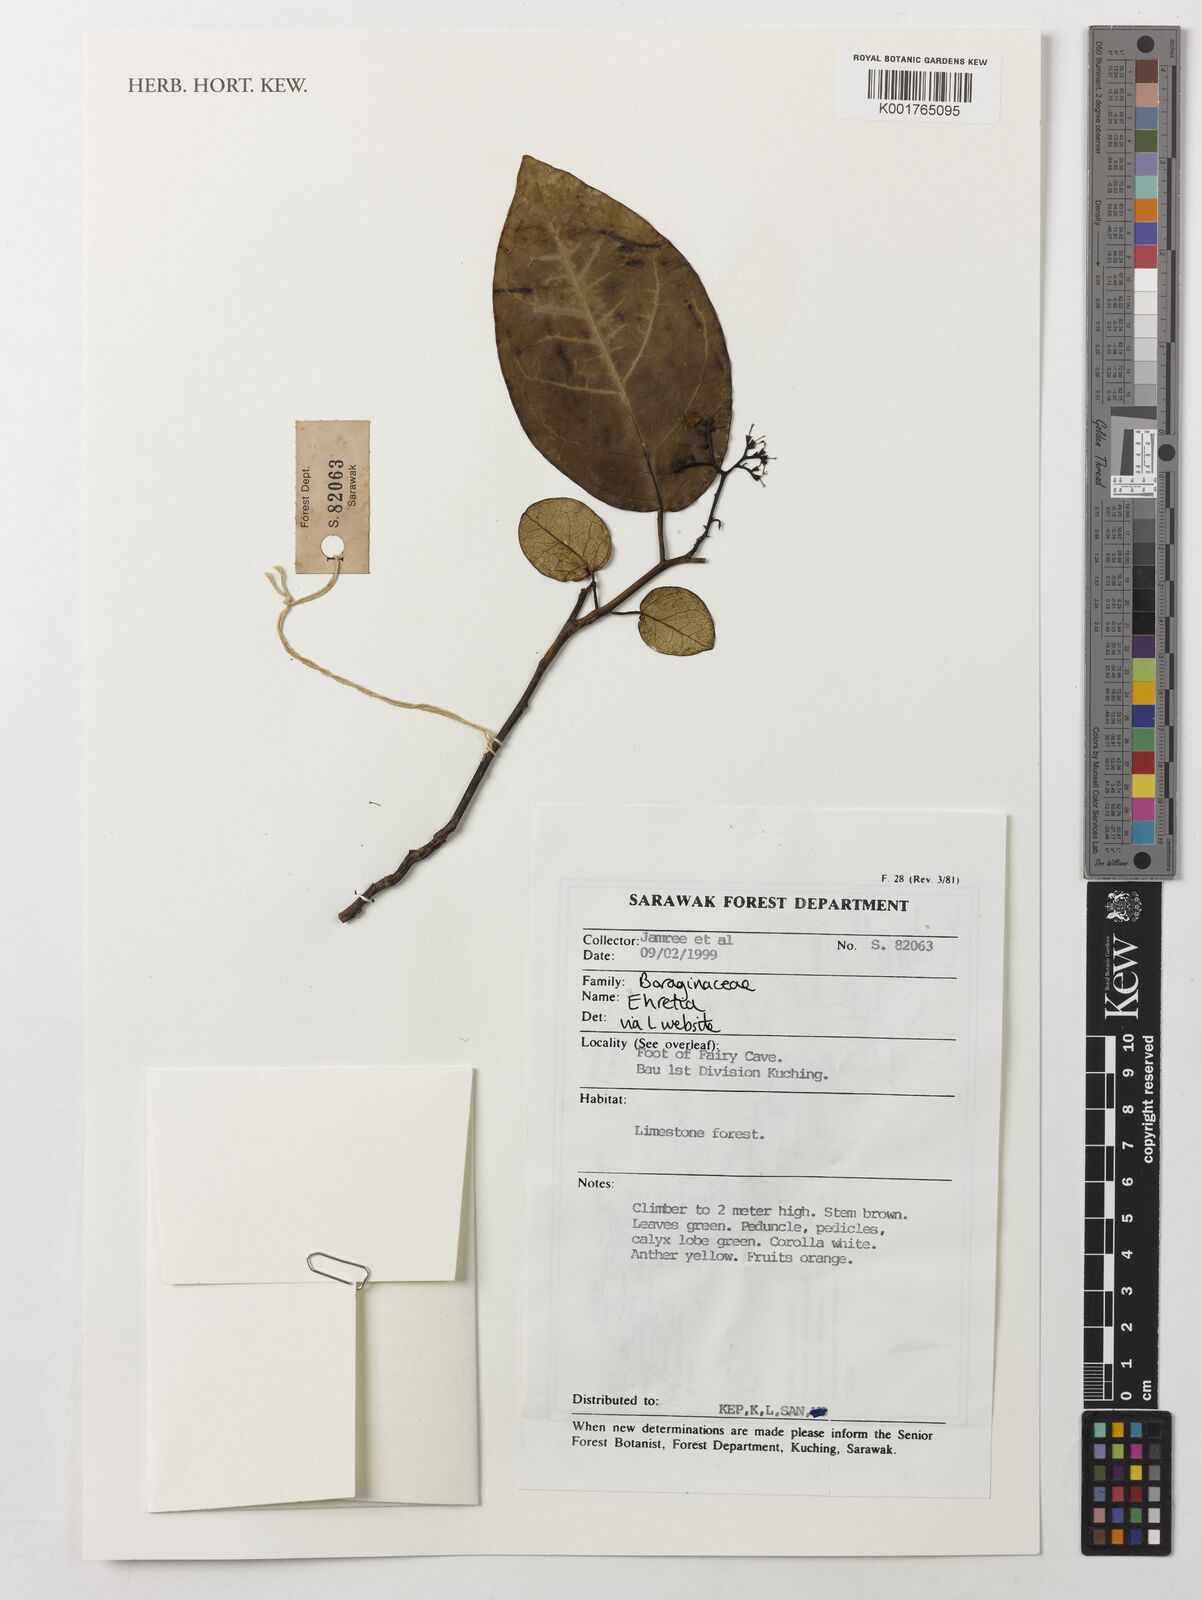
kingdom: Plantae
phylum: Tracheophyta
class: Magnoliopsida
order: Boraginales
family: Ehretiaceae
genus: Ehretia
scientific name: Ehretia
